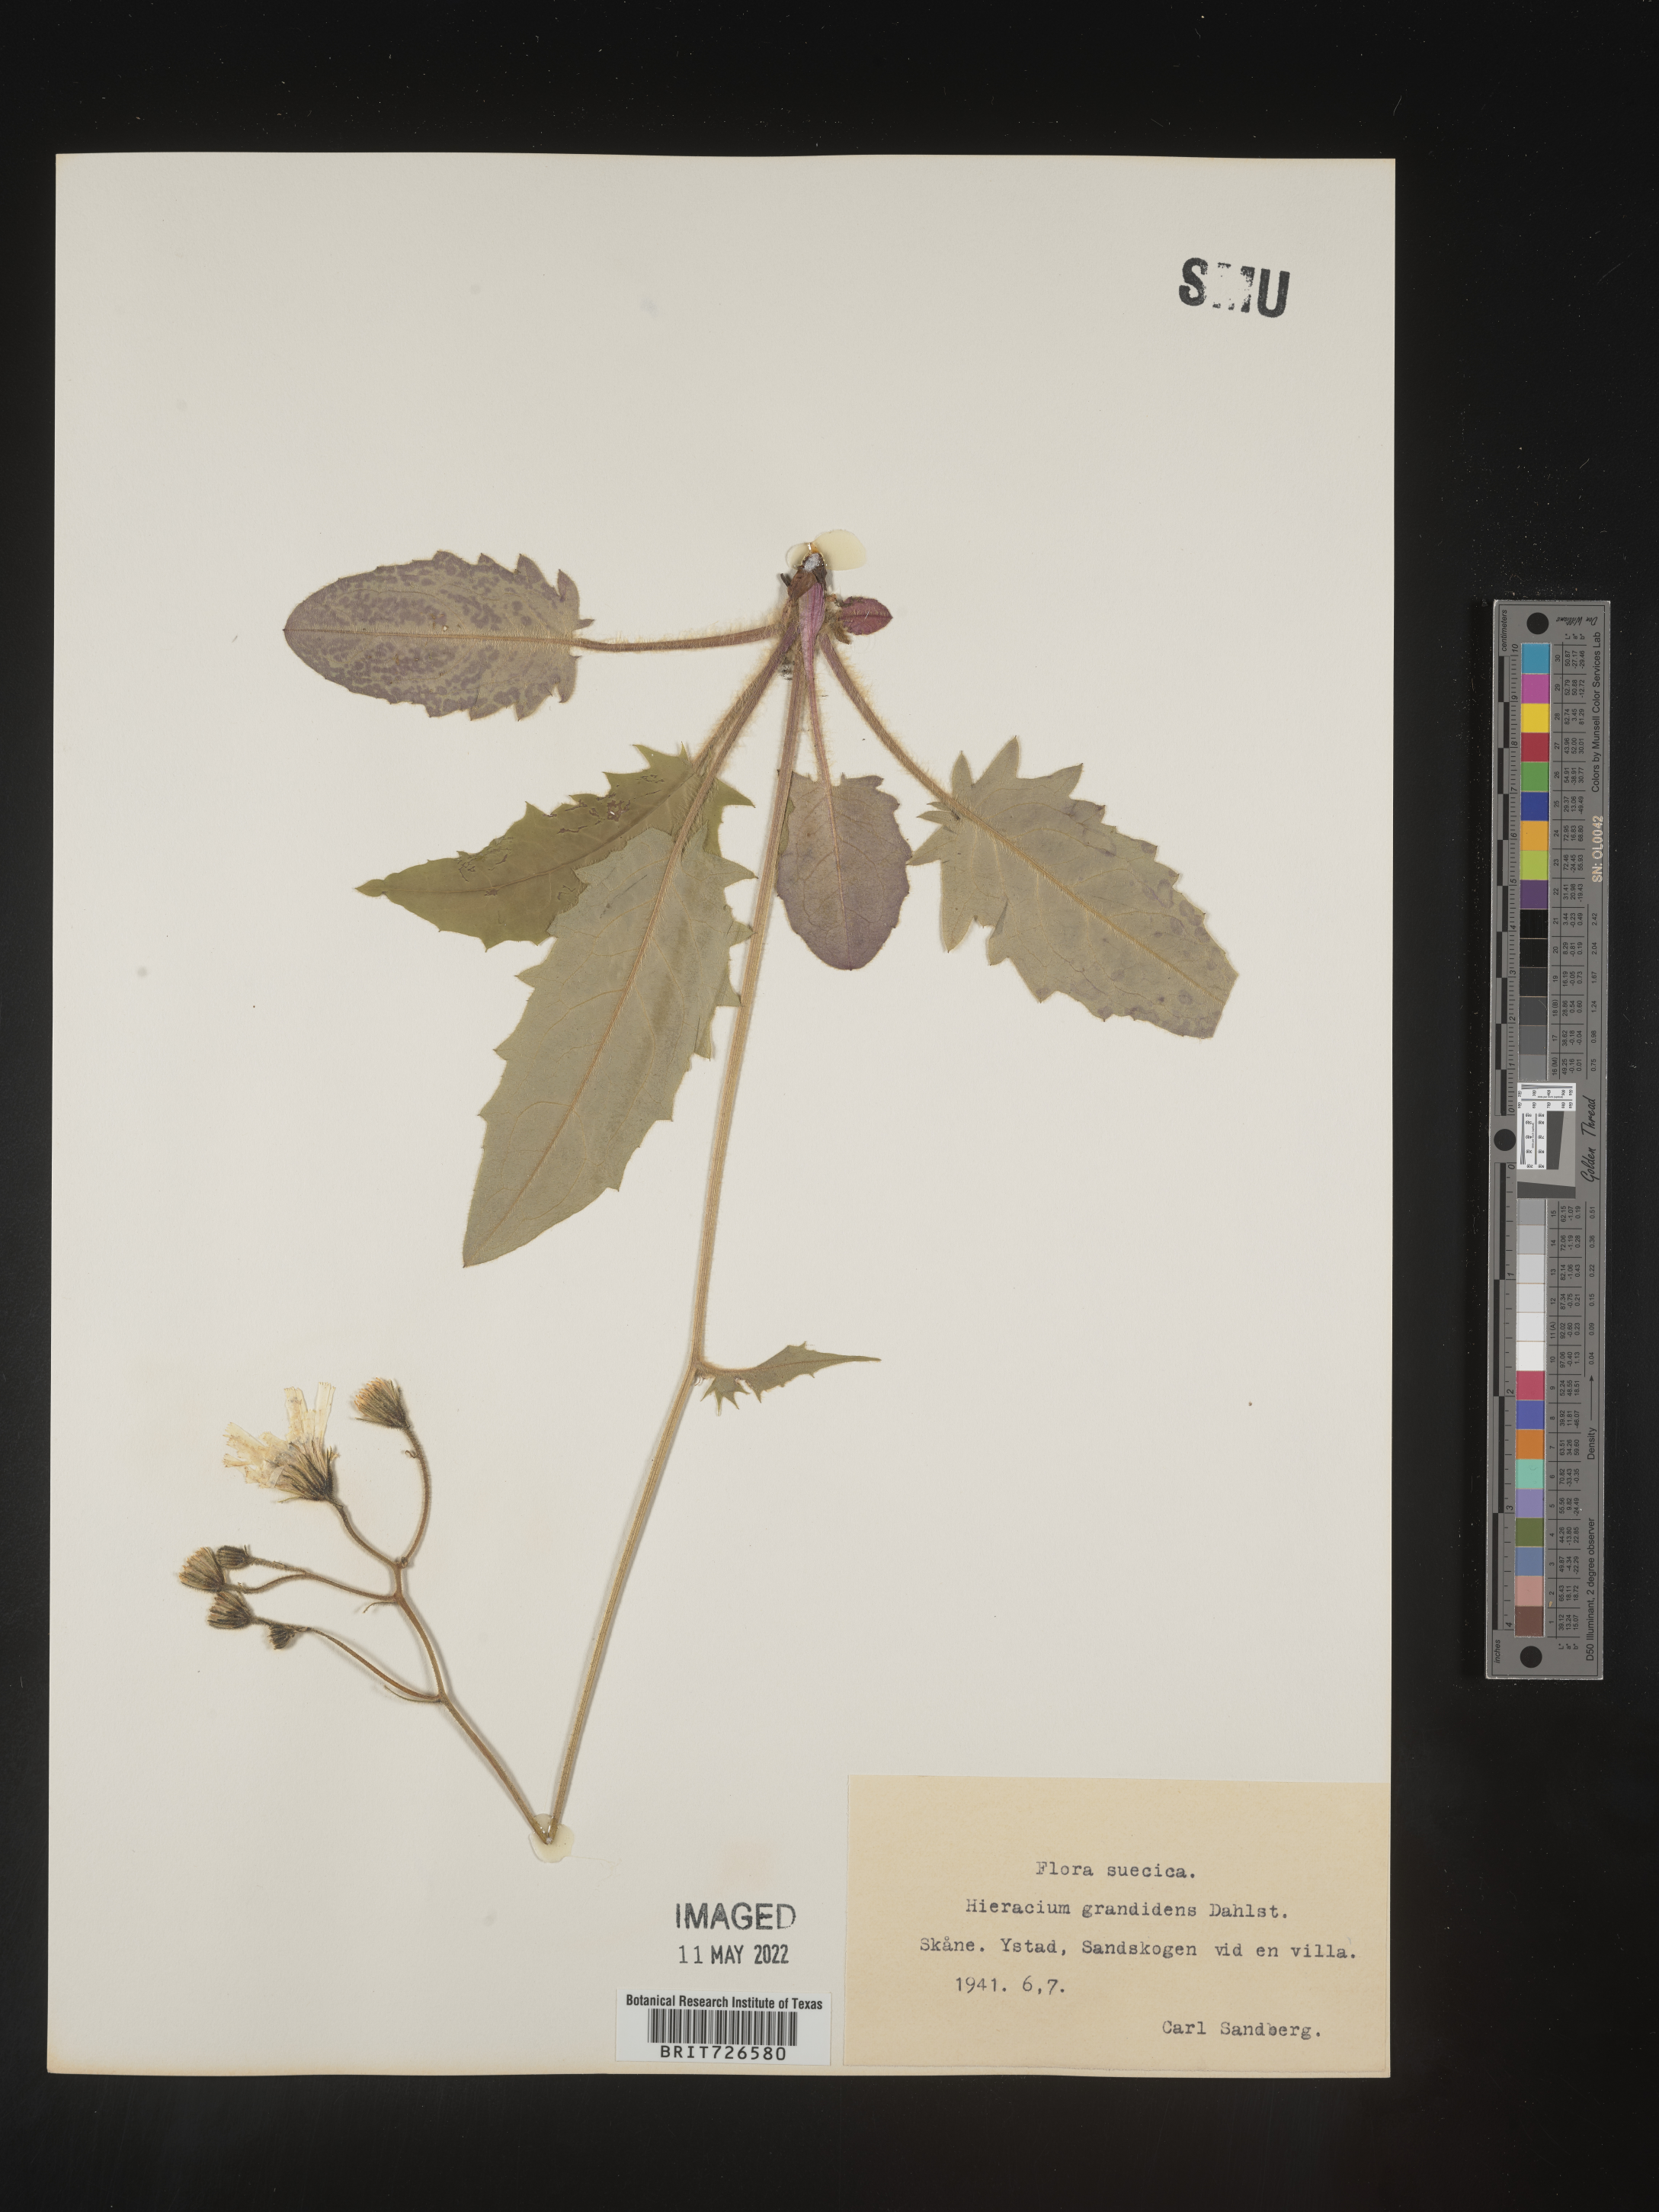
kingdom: Plantae
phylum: Tracheophyta
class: Magnoliopsida
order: Asterales
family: Asteraceae
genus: Hieracium
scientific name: Hieracium
